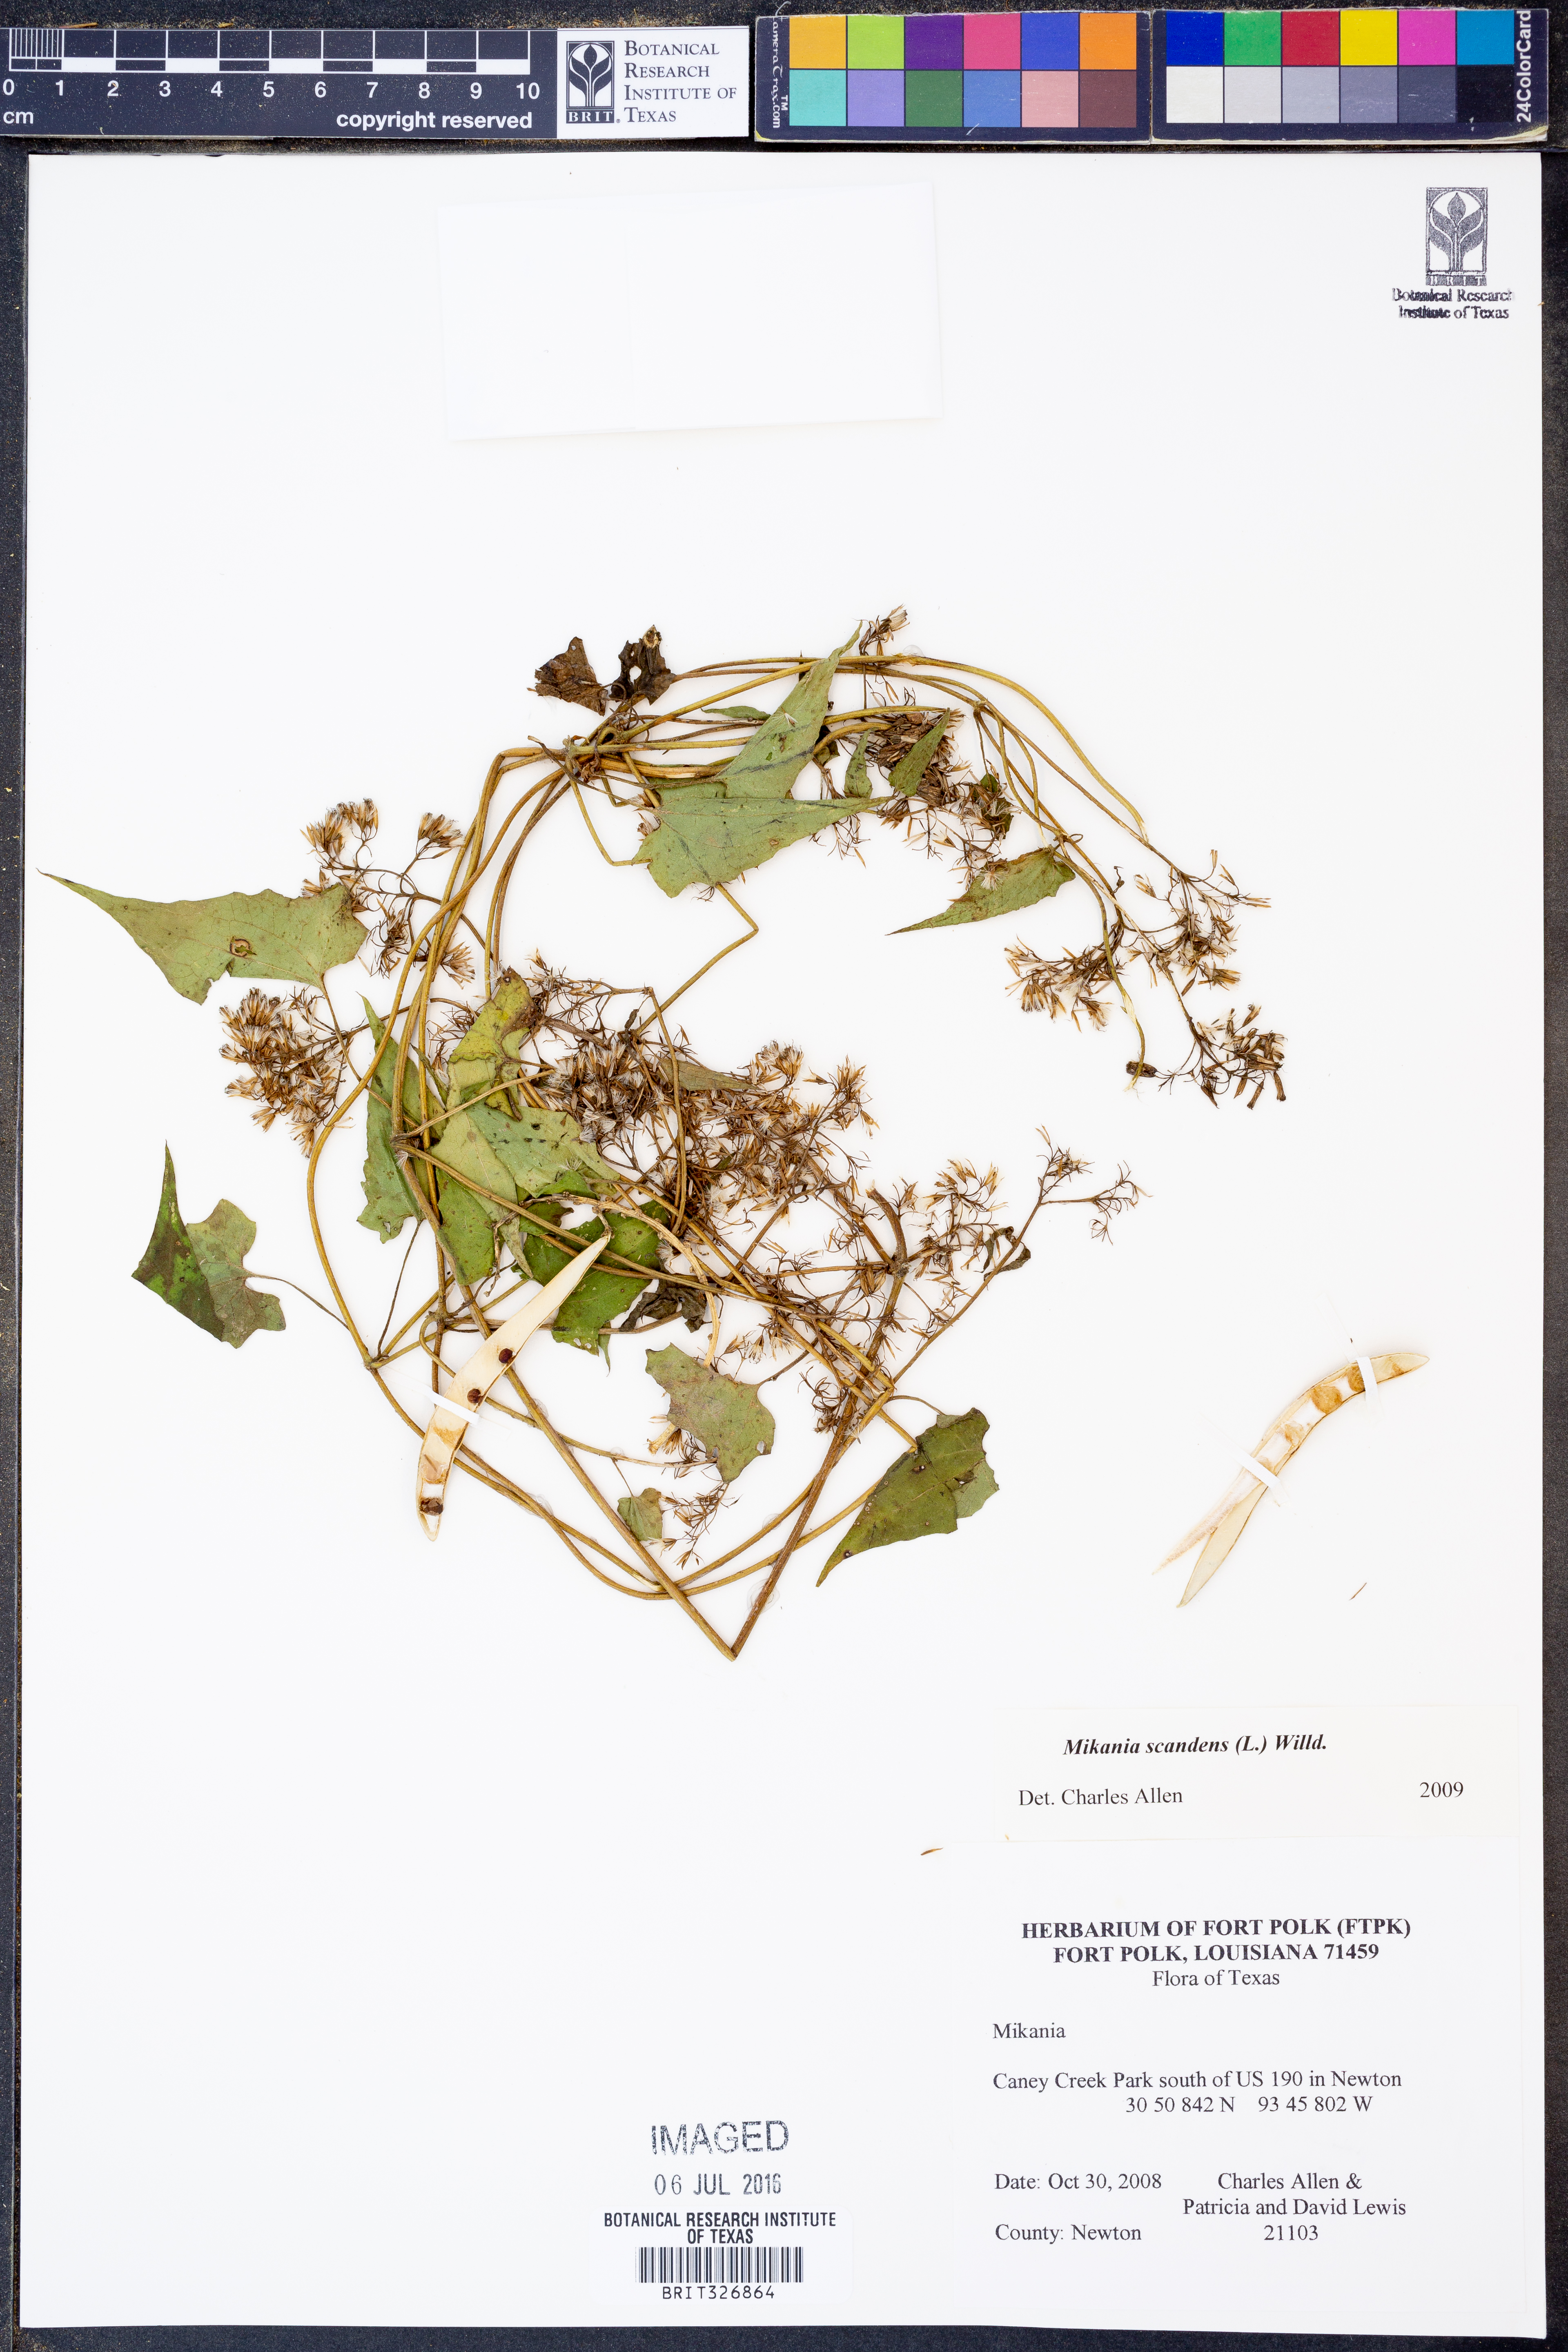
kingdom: Plantae
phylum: Tracheophyta
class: Magnoliopsida
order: Asterales
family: Asteraceae
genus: Mikania
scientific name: Mikania scandens
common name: Climbing hempvine
